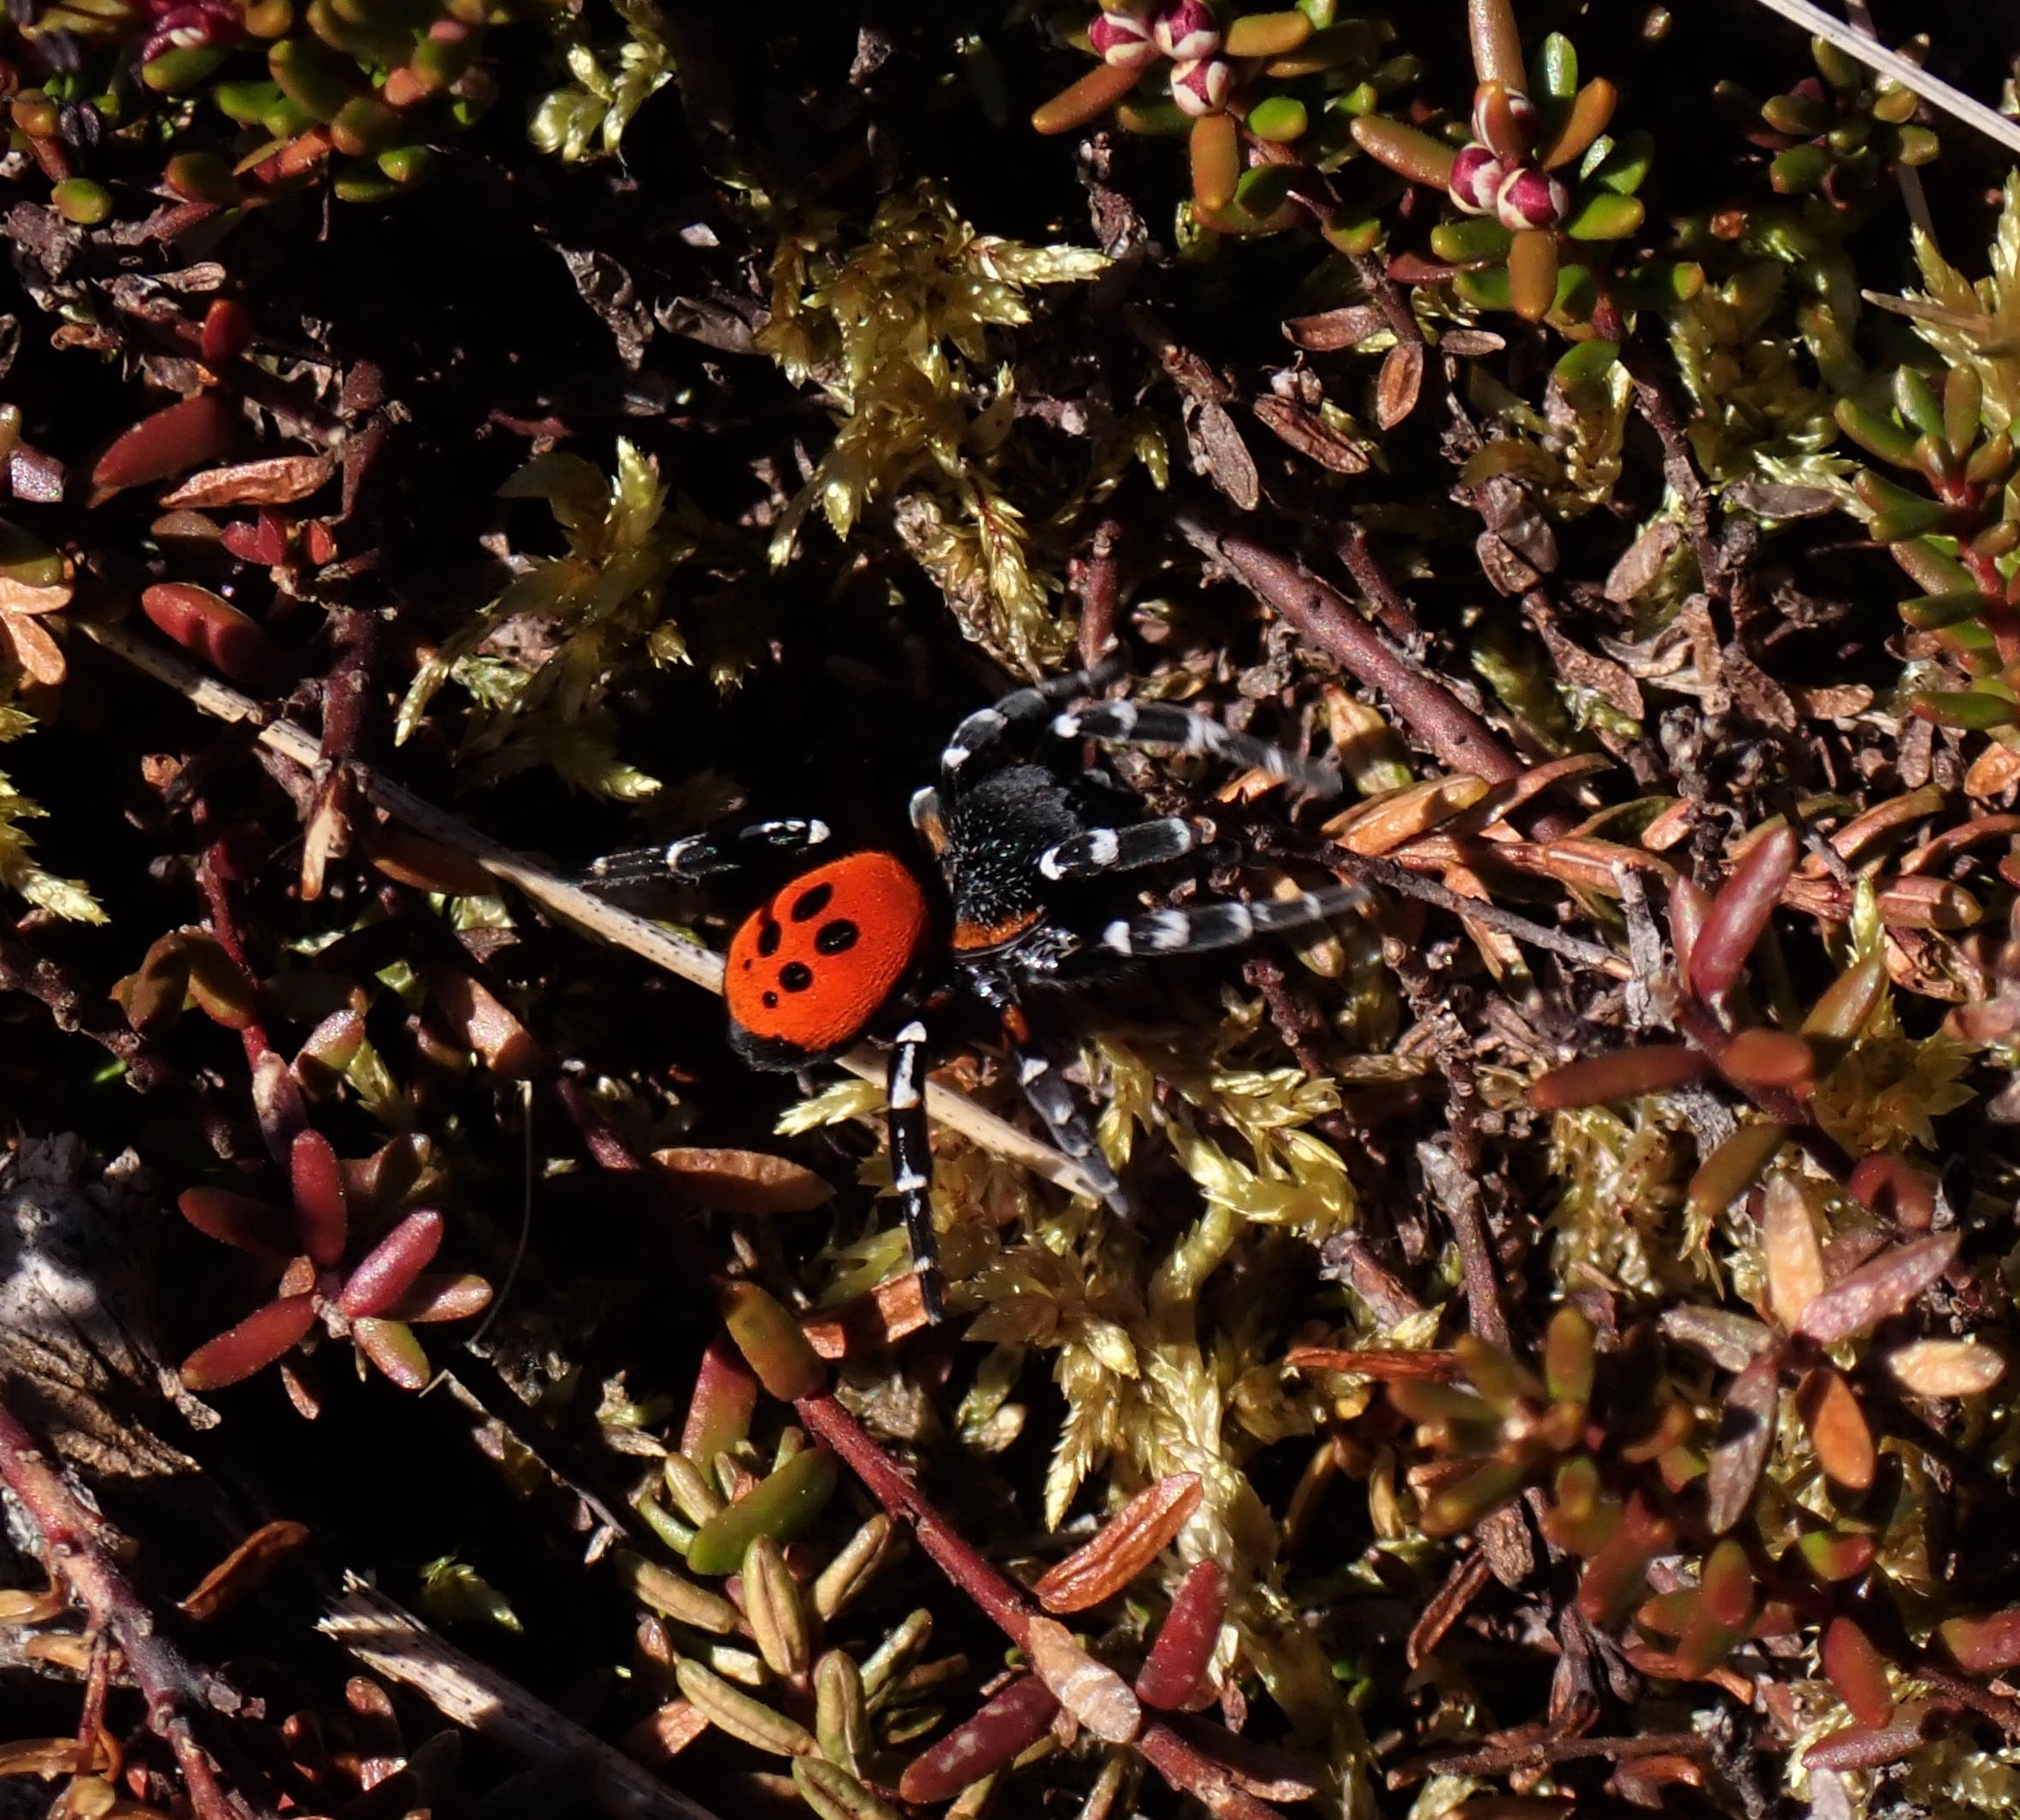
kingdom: Animalia
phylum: Arthropoda
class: Arachnida
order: Araneae
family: Eresidae
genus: Eresus
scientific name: Eresus sandaliatus
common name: Mariehøneedderkop
